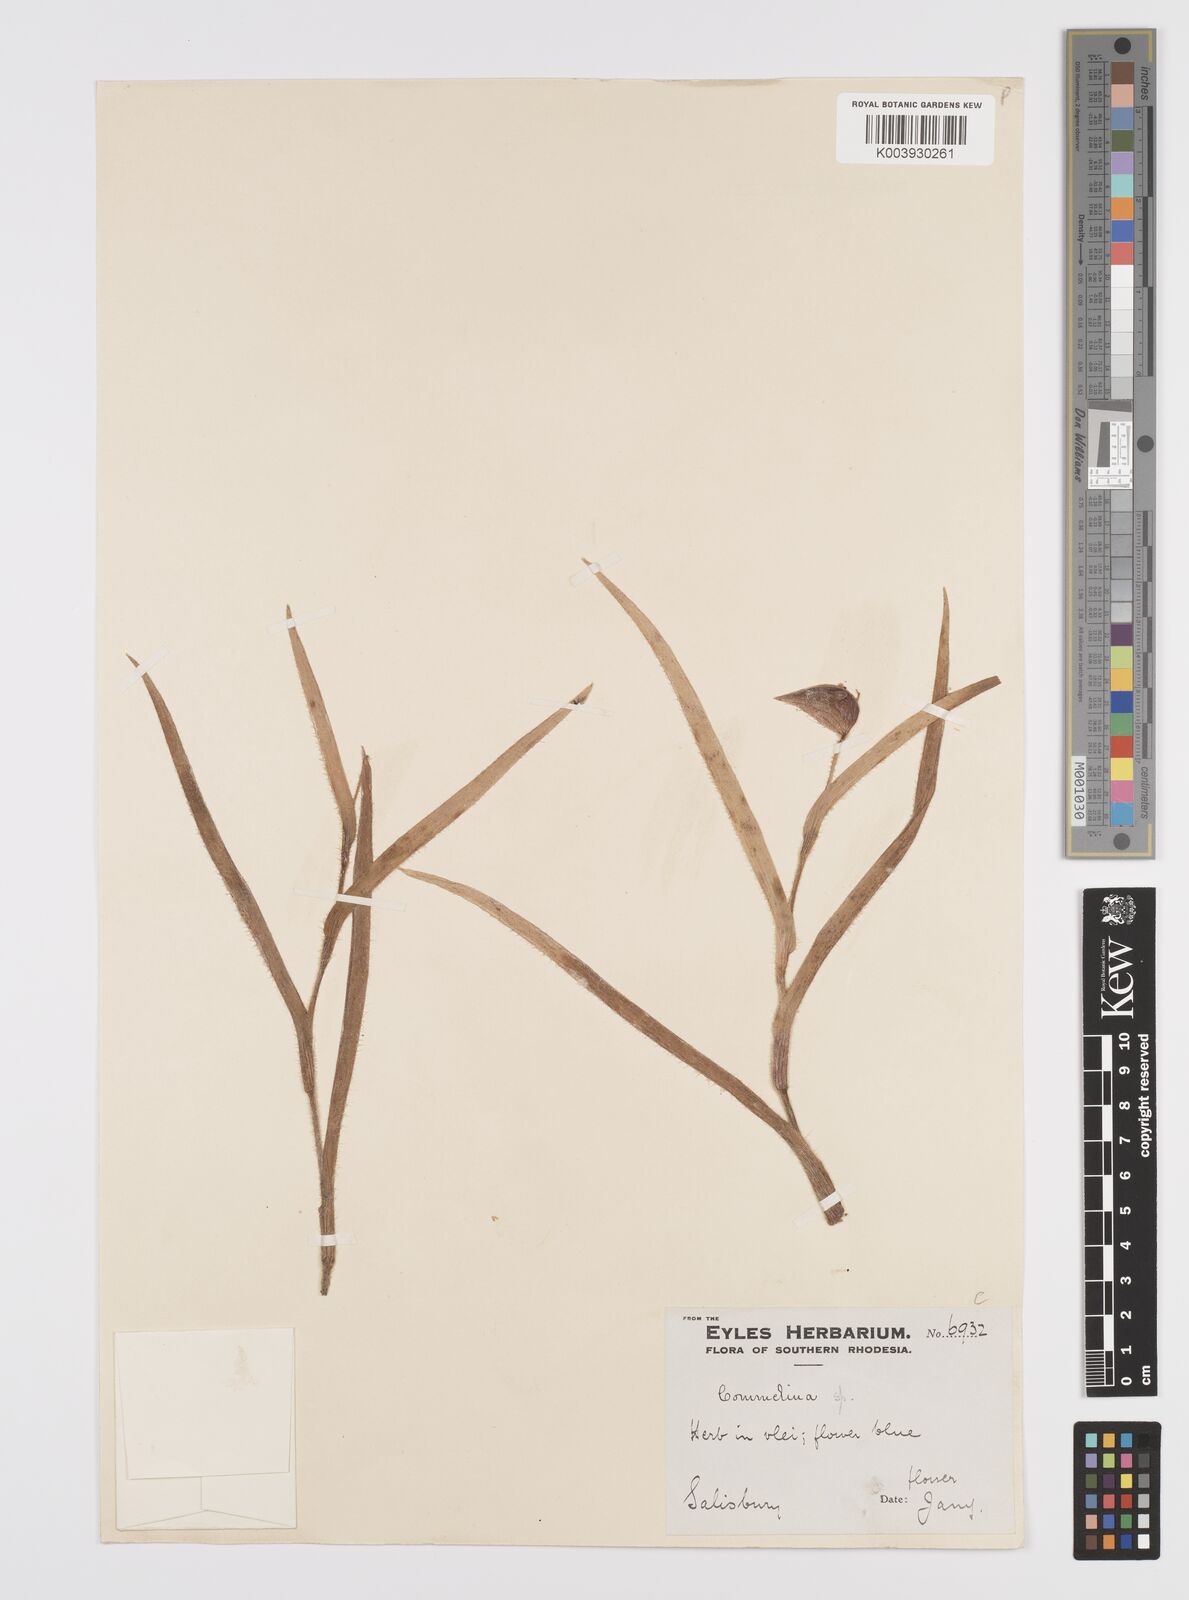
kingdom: Plantae
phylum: Tracheophyta
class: Liliopsida
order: Commelinales
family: Commelinaceae
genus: Commelina
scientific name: Commelina schweinfurthii
